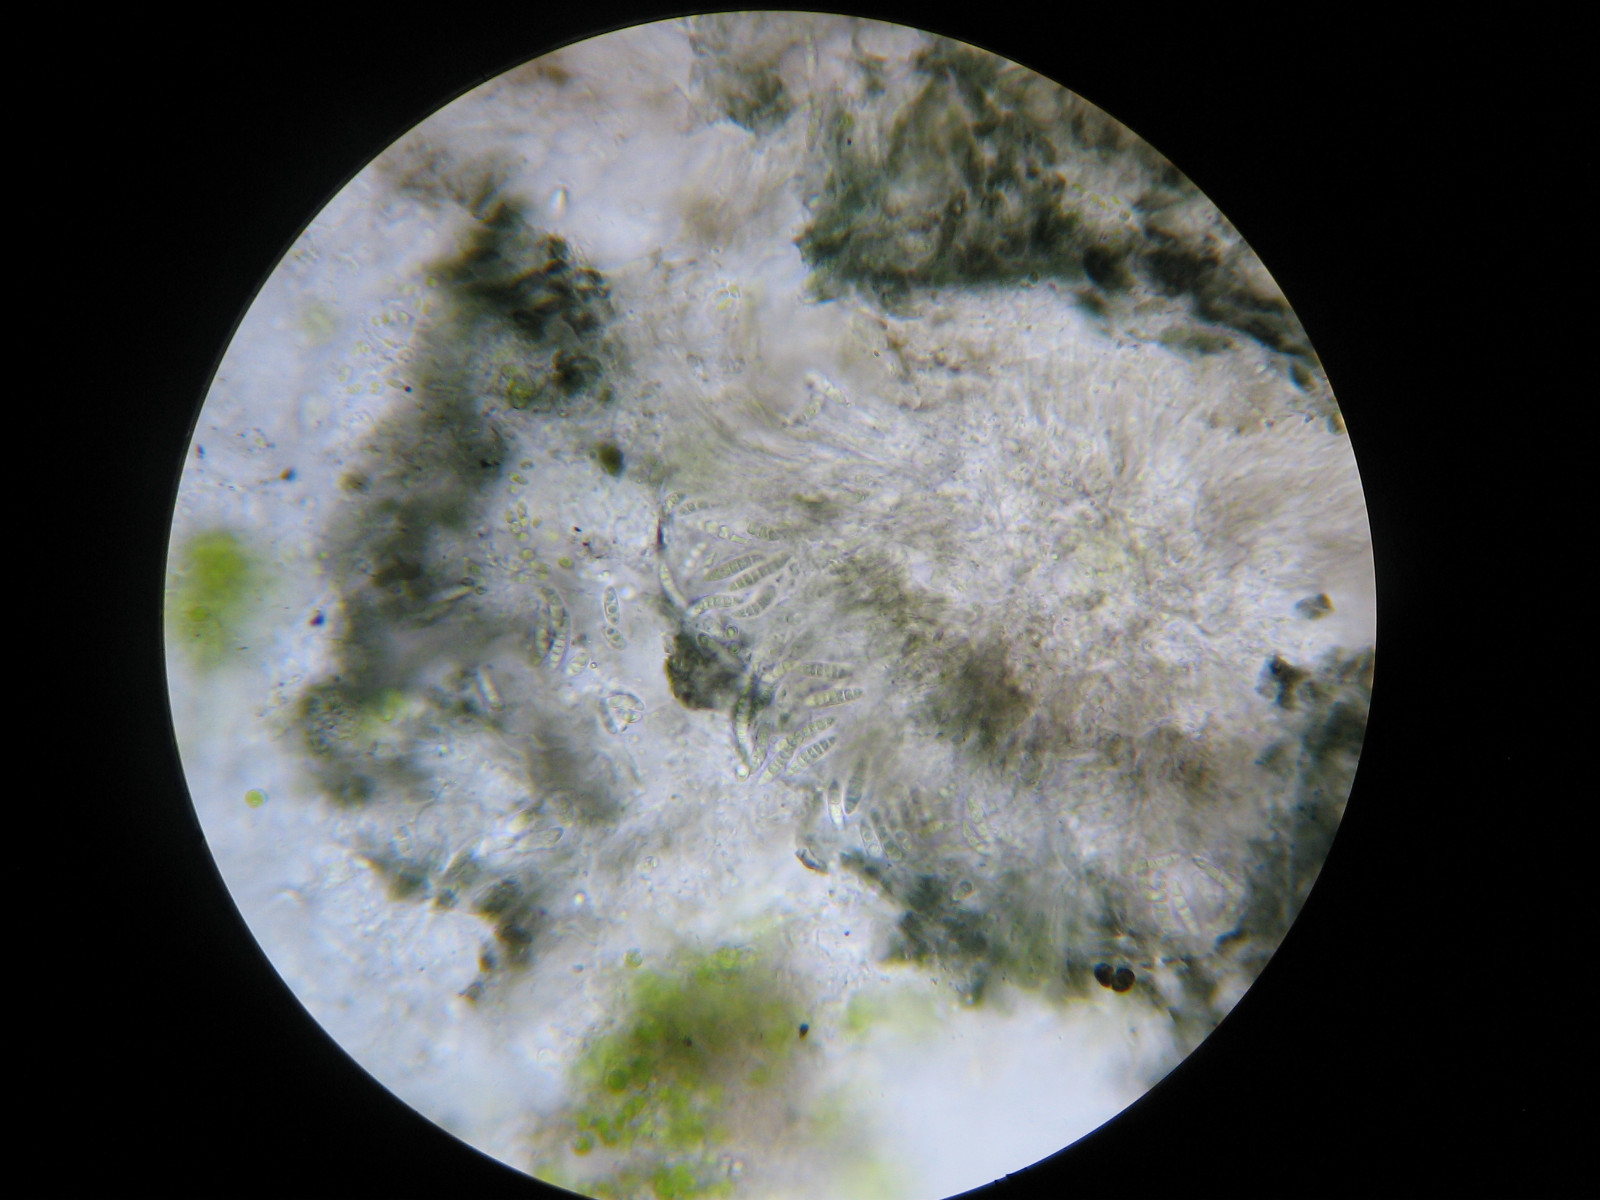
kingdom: Fungi
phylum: Ascomycota
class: Lecanoromycetes
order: Lecanorales
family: Byssolomataceae
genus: Micarea
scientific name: Micarea lignaria
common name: tørve-knaplav
